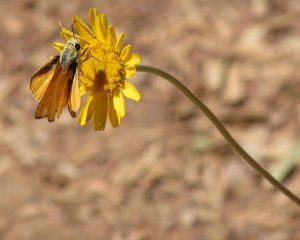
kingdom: Animalia
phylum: Arthropoda
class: Insecta
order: Lepidoptera
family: Hesperiidae
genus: Copaeodes
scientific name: Copaeodes aurantiaca
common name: Orange Skipperling
